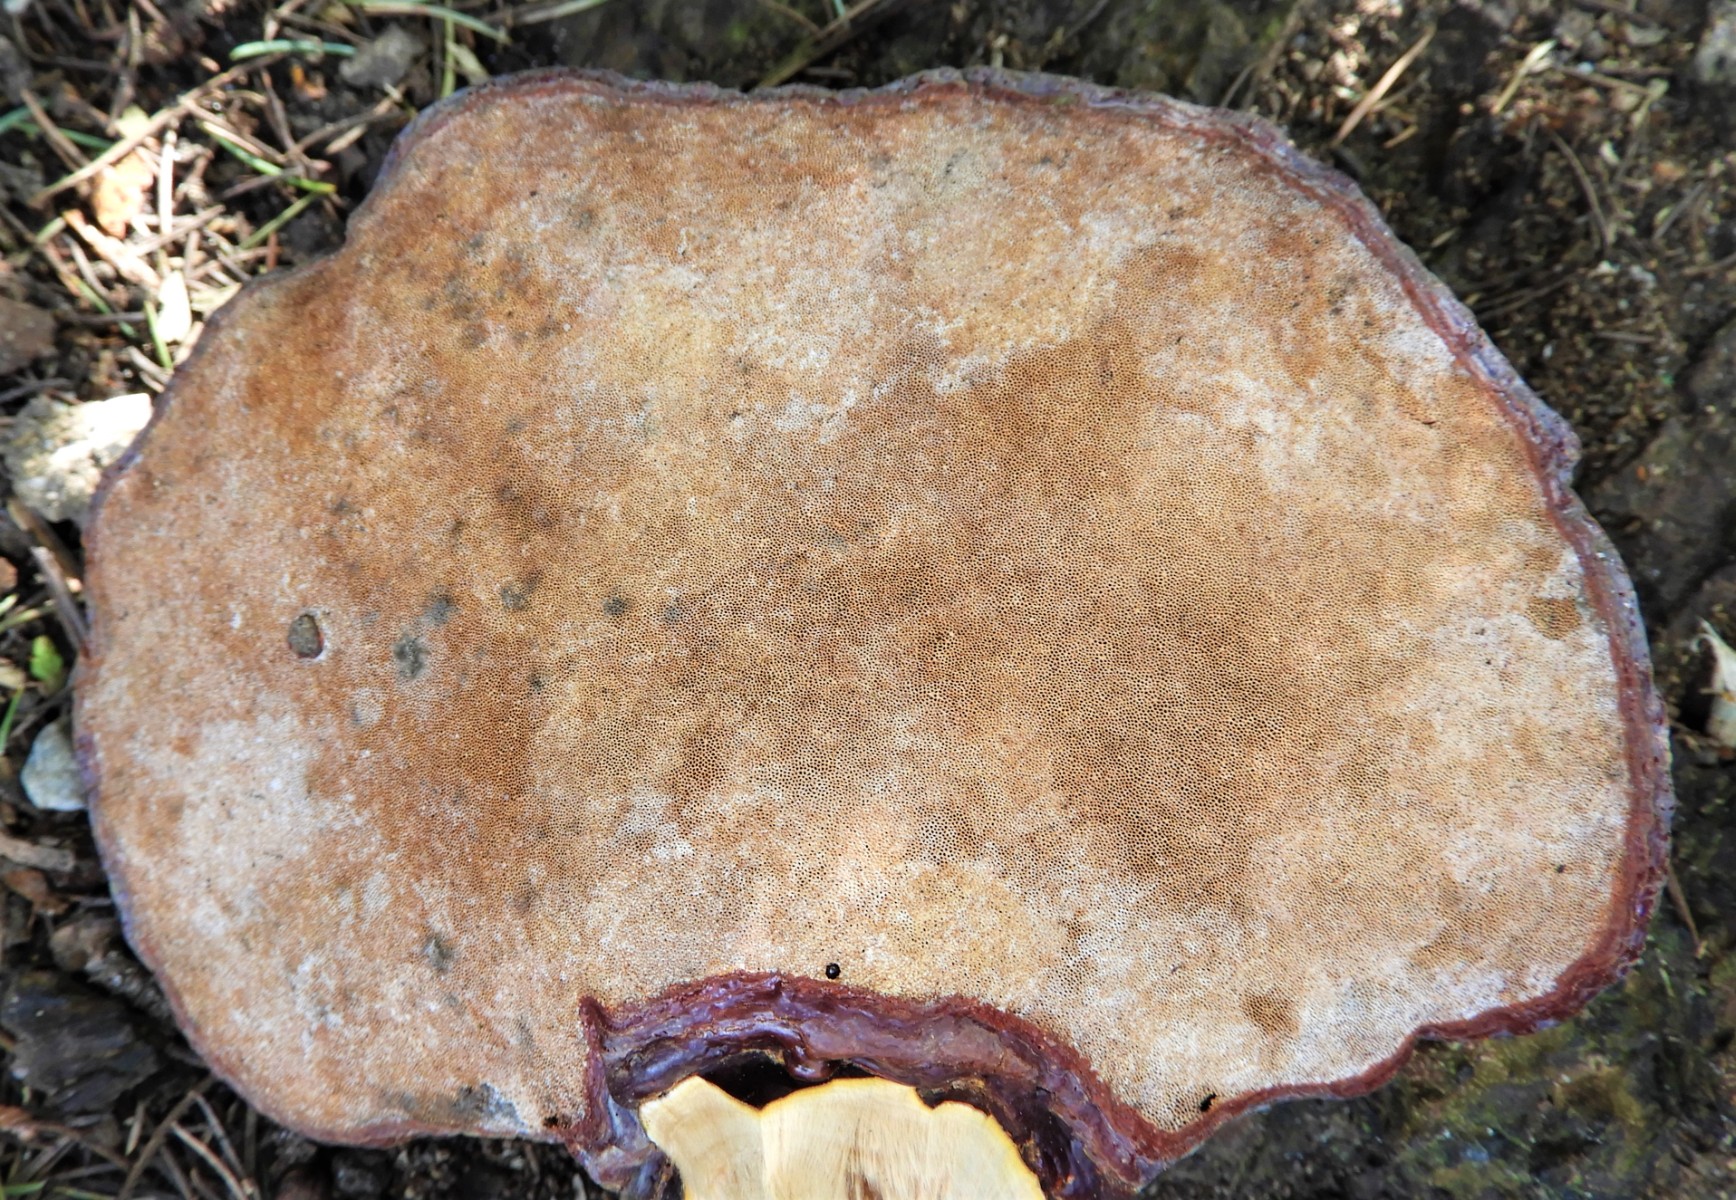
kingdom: Fungi
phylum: Basidiomycota
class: Agaricomycetes
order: Polyporales
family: Polyporaceae
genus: Ganoderma
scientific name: Ganoderma lucidum
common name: skinnende lakporesvamp
